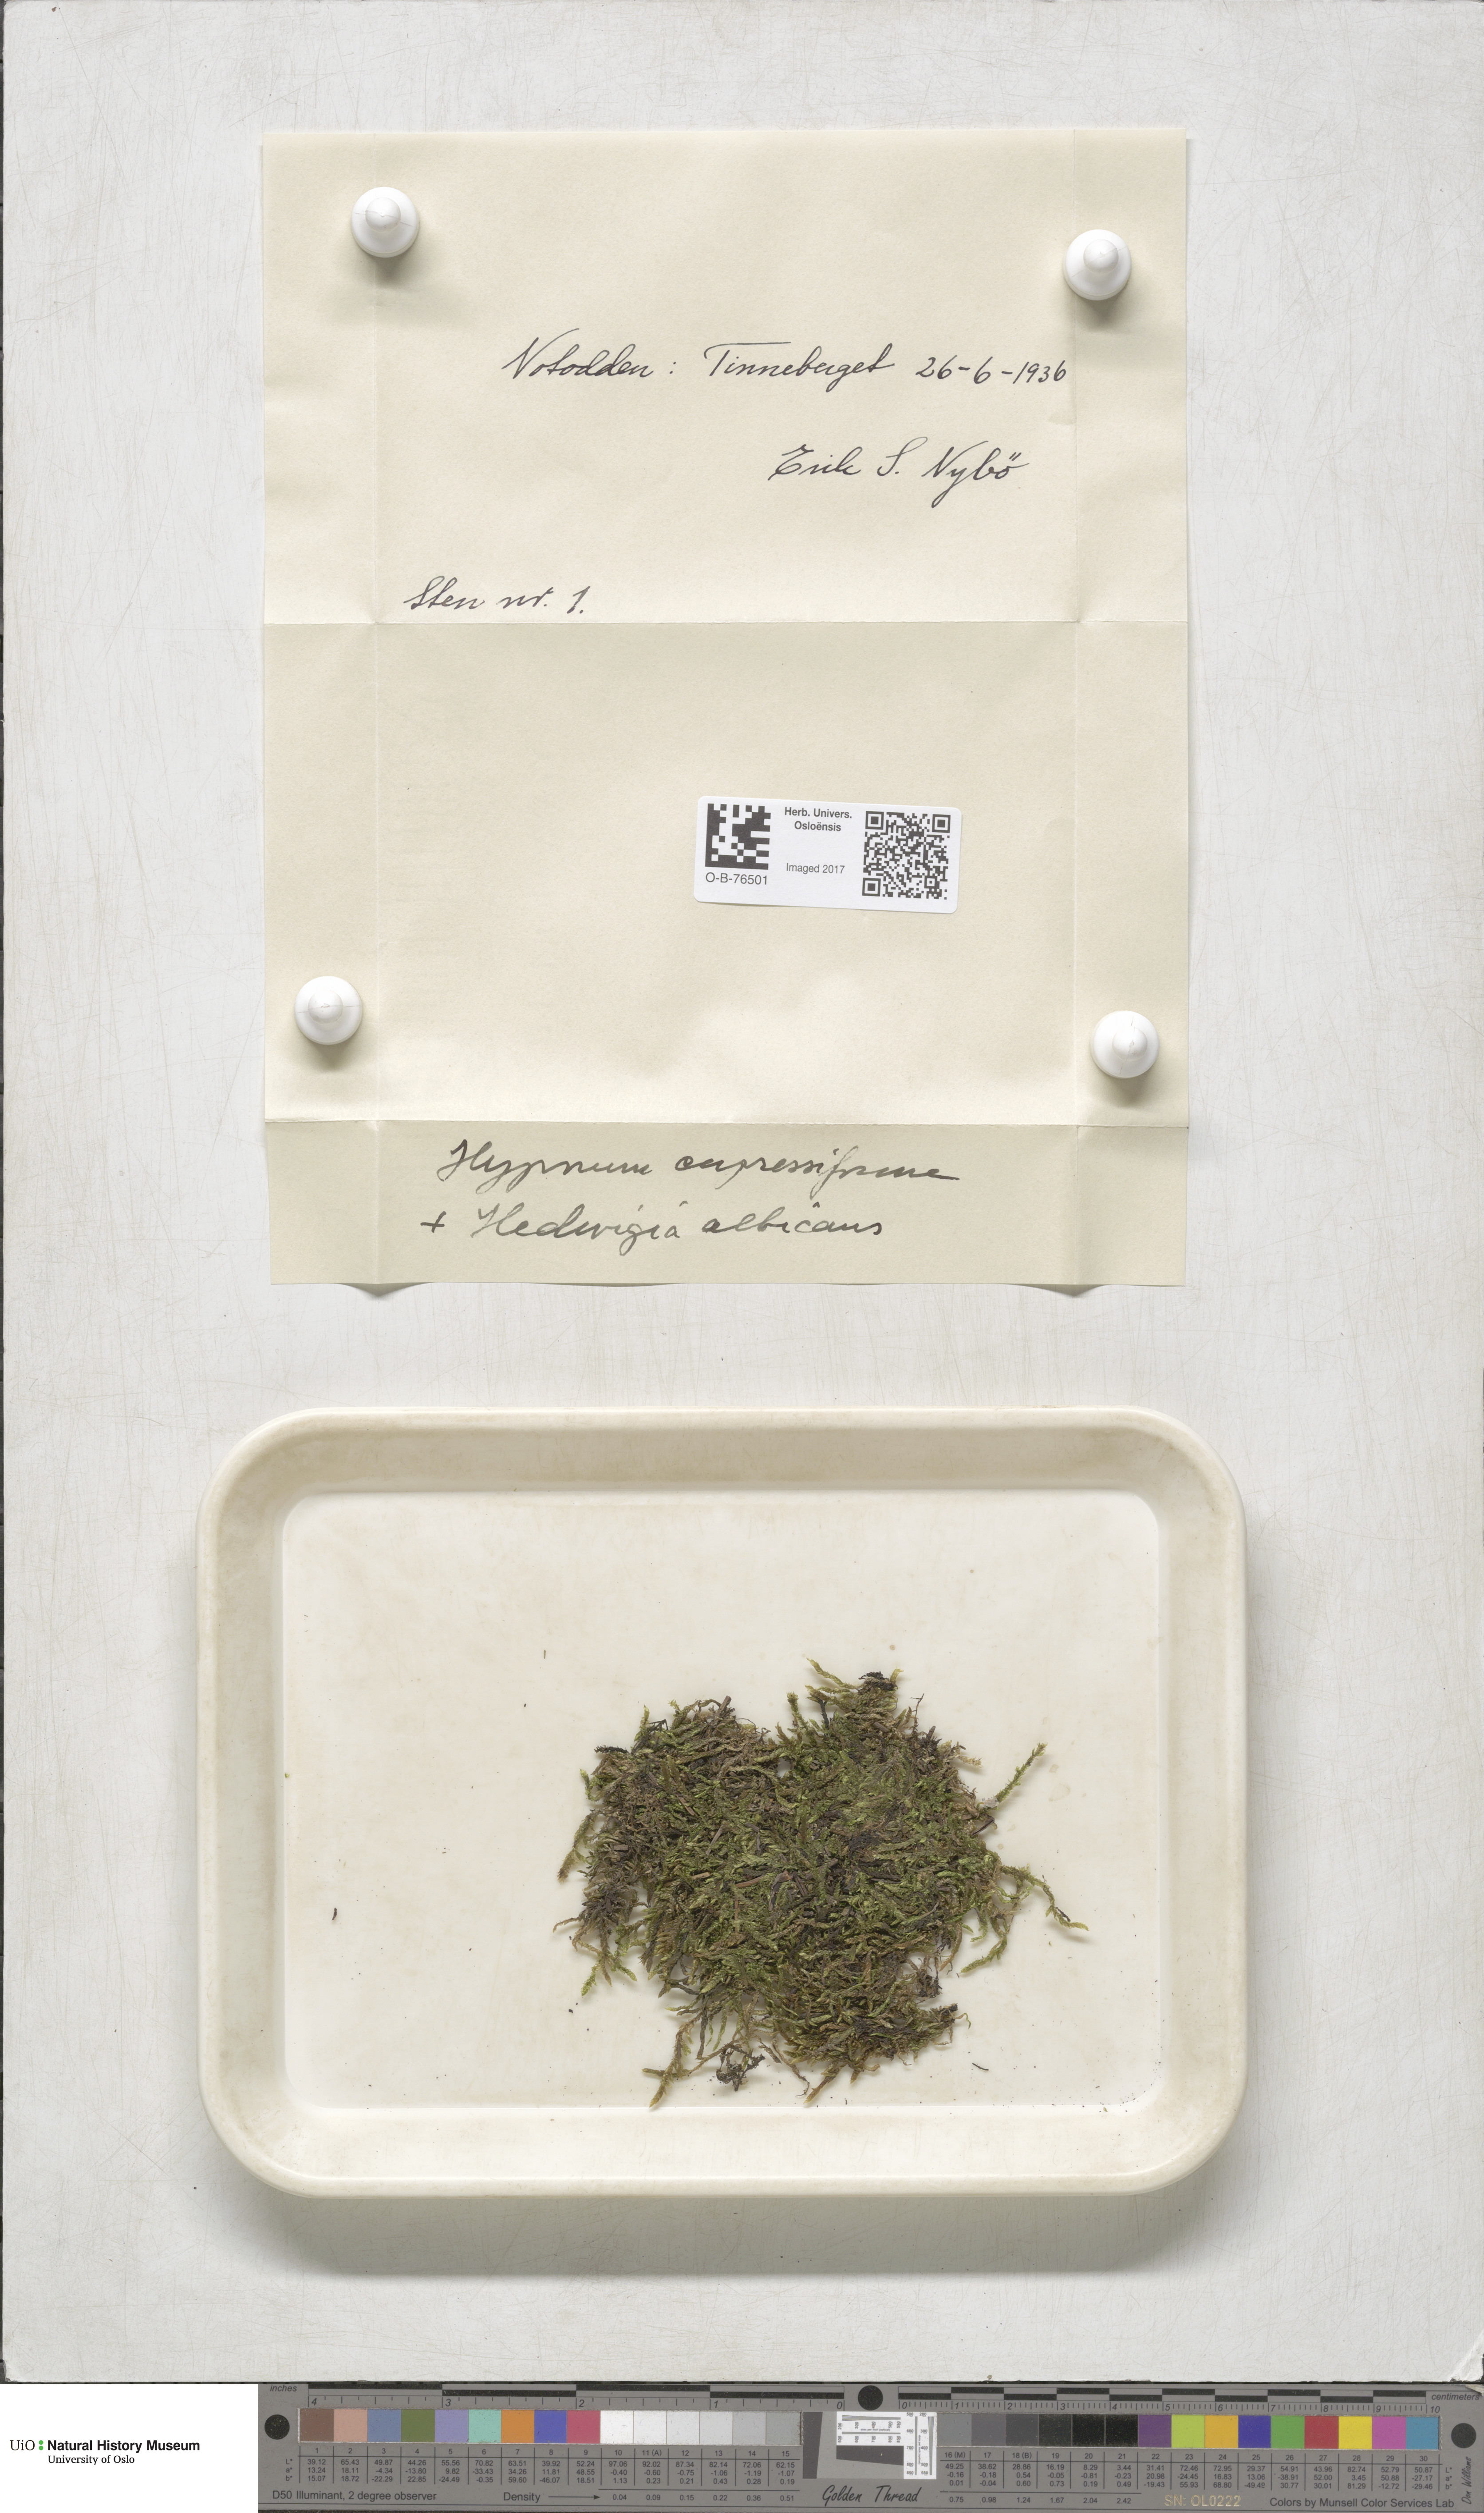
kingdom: Plantae
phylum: Bryophyta
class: Bryopsida
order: Hypnales
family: Hypnaceae
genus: Hypnum
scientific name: Hypnum cupressiforme
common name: Cypress-leaved plait-moss
